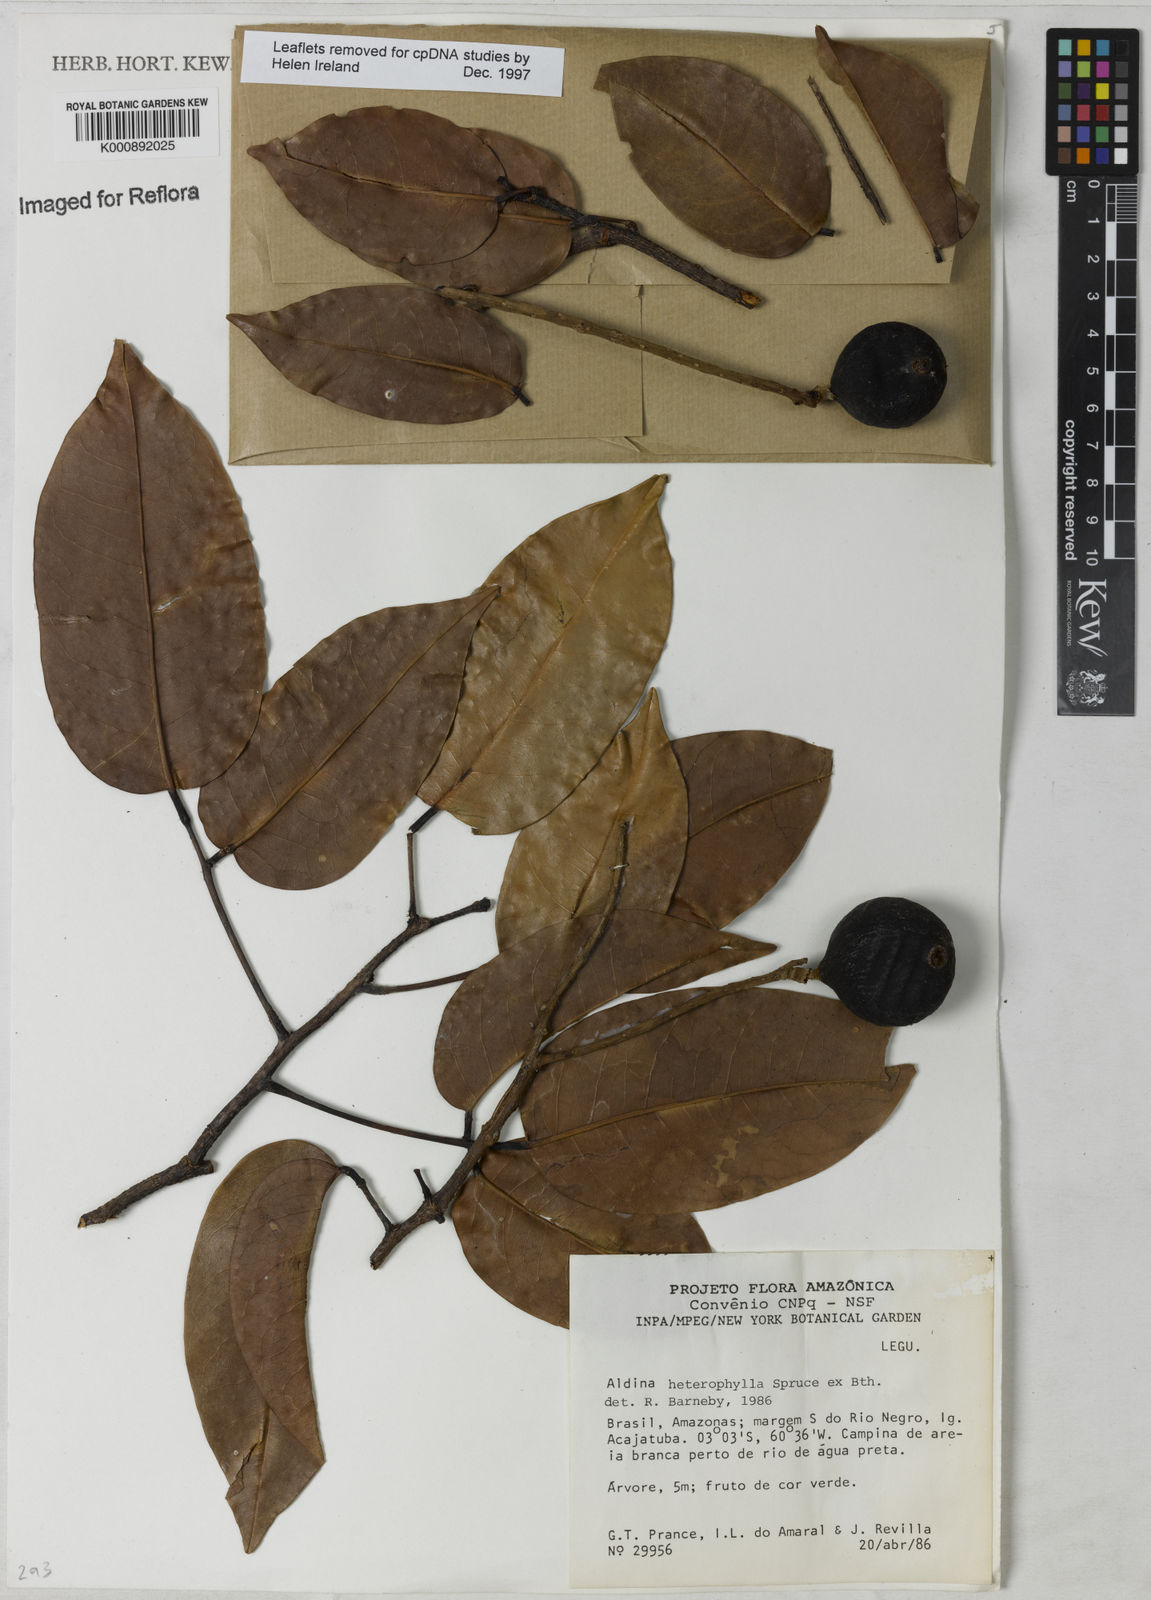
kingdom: Plantae
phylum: Tracheophyta
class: Magnoliopsida
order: Fabales
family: Fabaceae
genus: Aldina
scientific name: Aldina heterophylla
